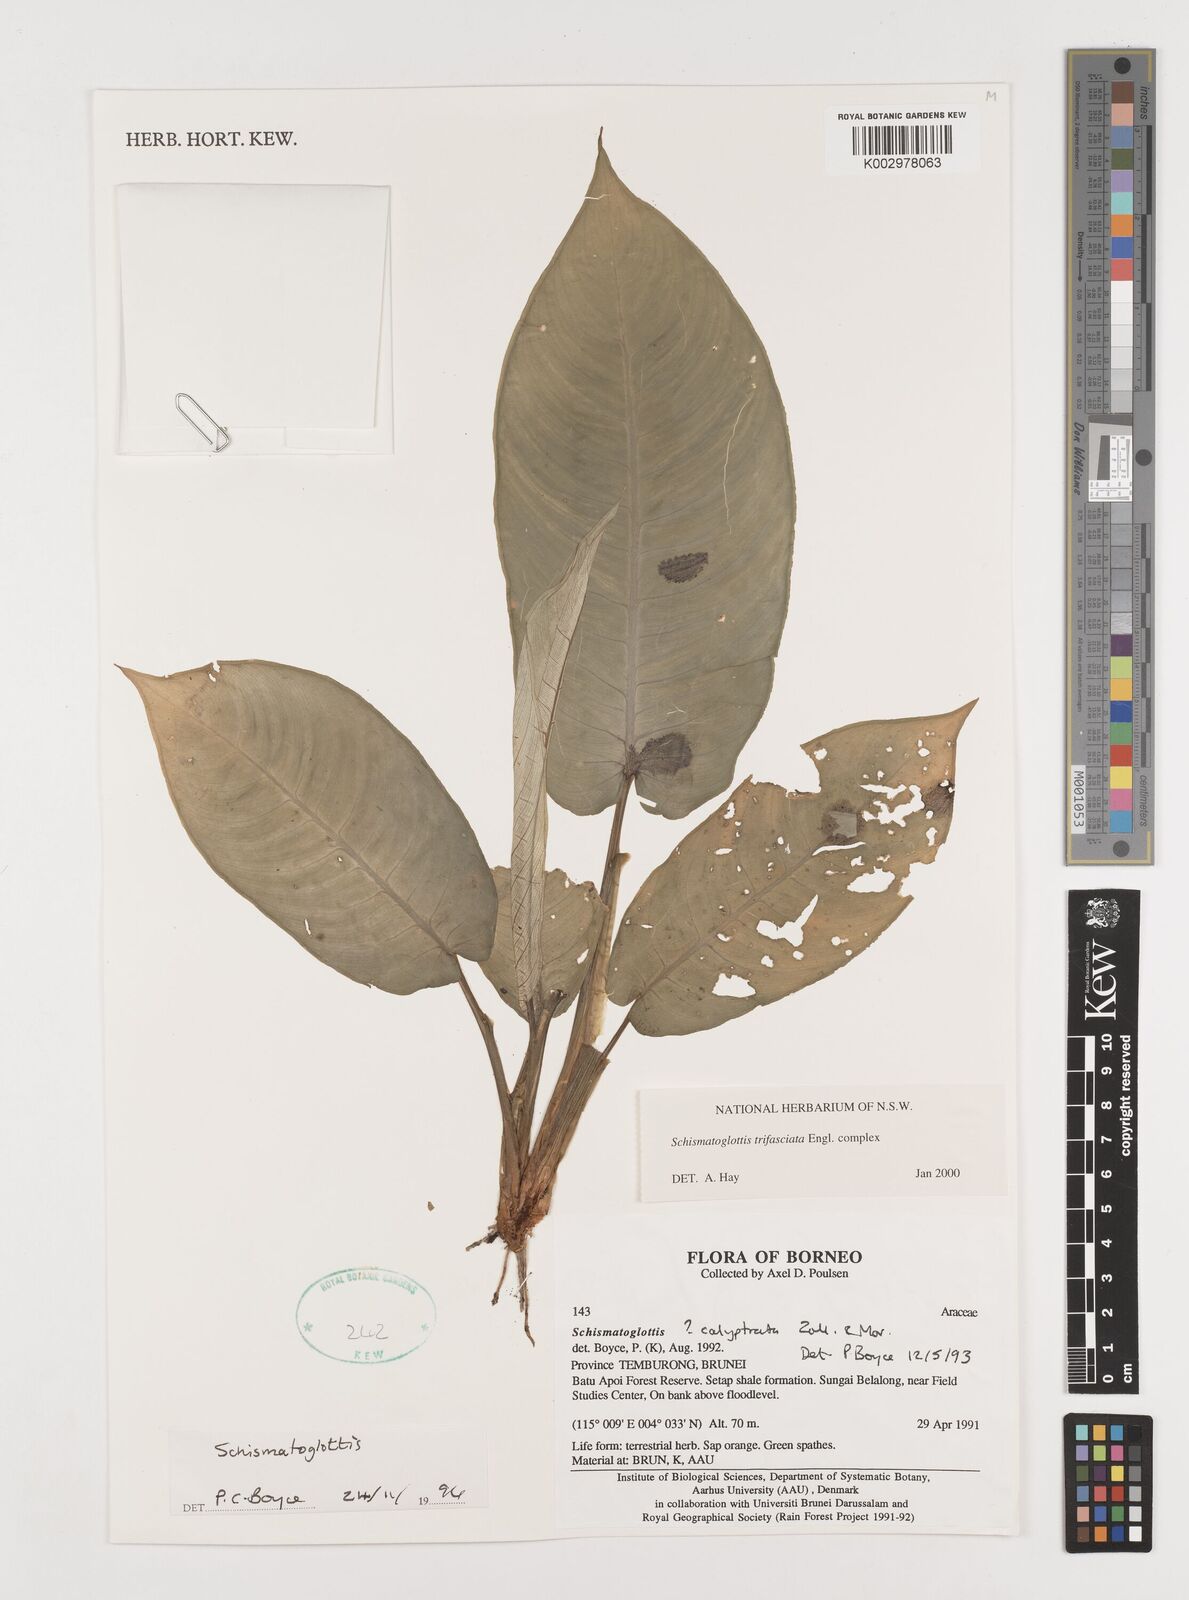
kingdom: Plantae
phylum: Tracheophyta
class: Liliopsida
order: Alismatales
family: Araceae
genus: Schismatoglottis
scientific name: Schismatoglottis trifasciata
